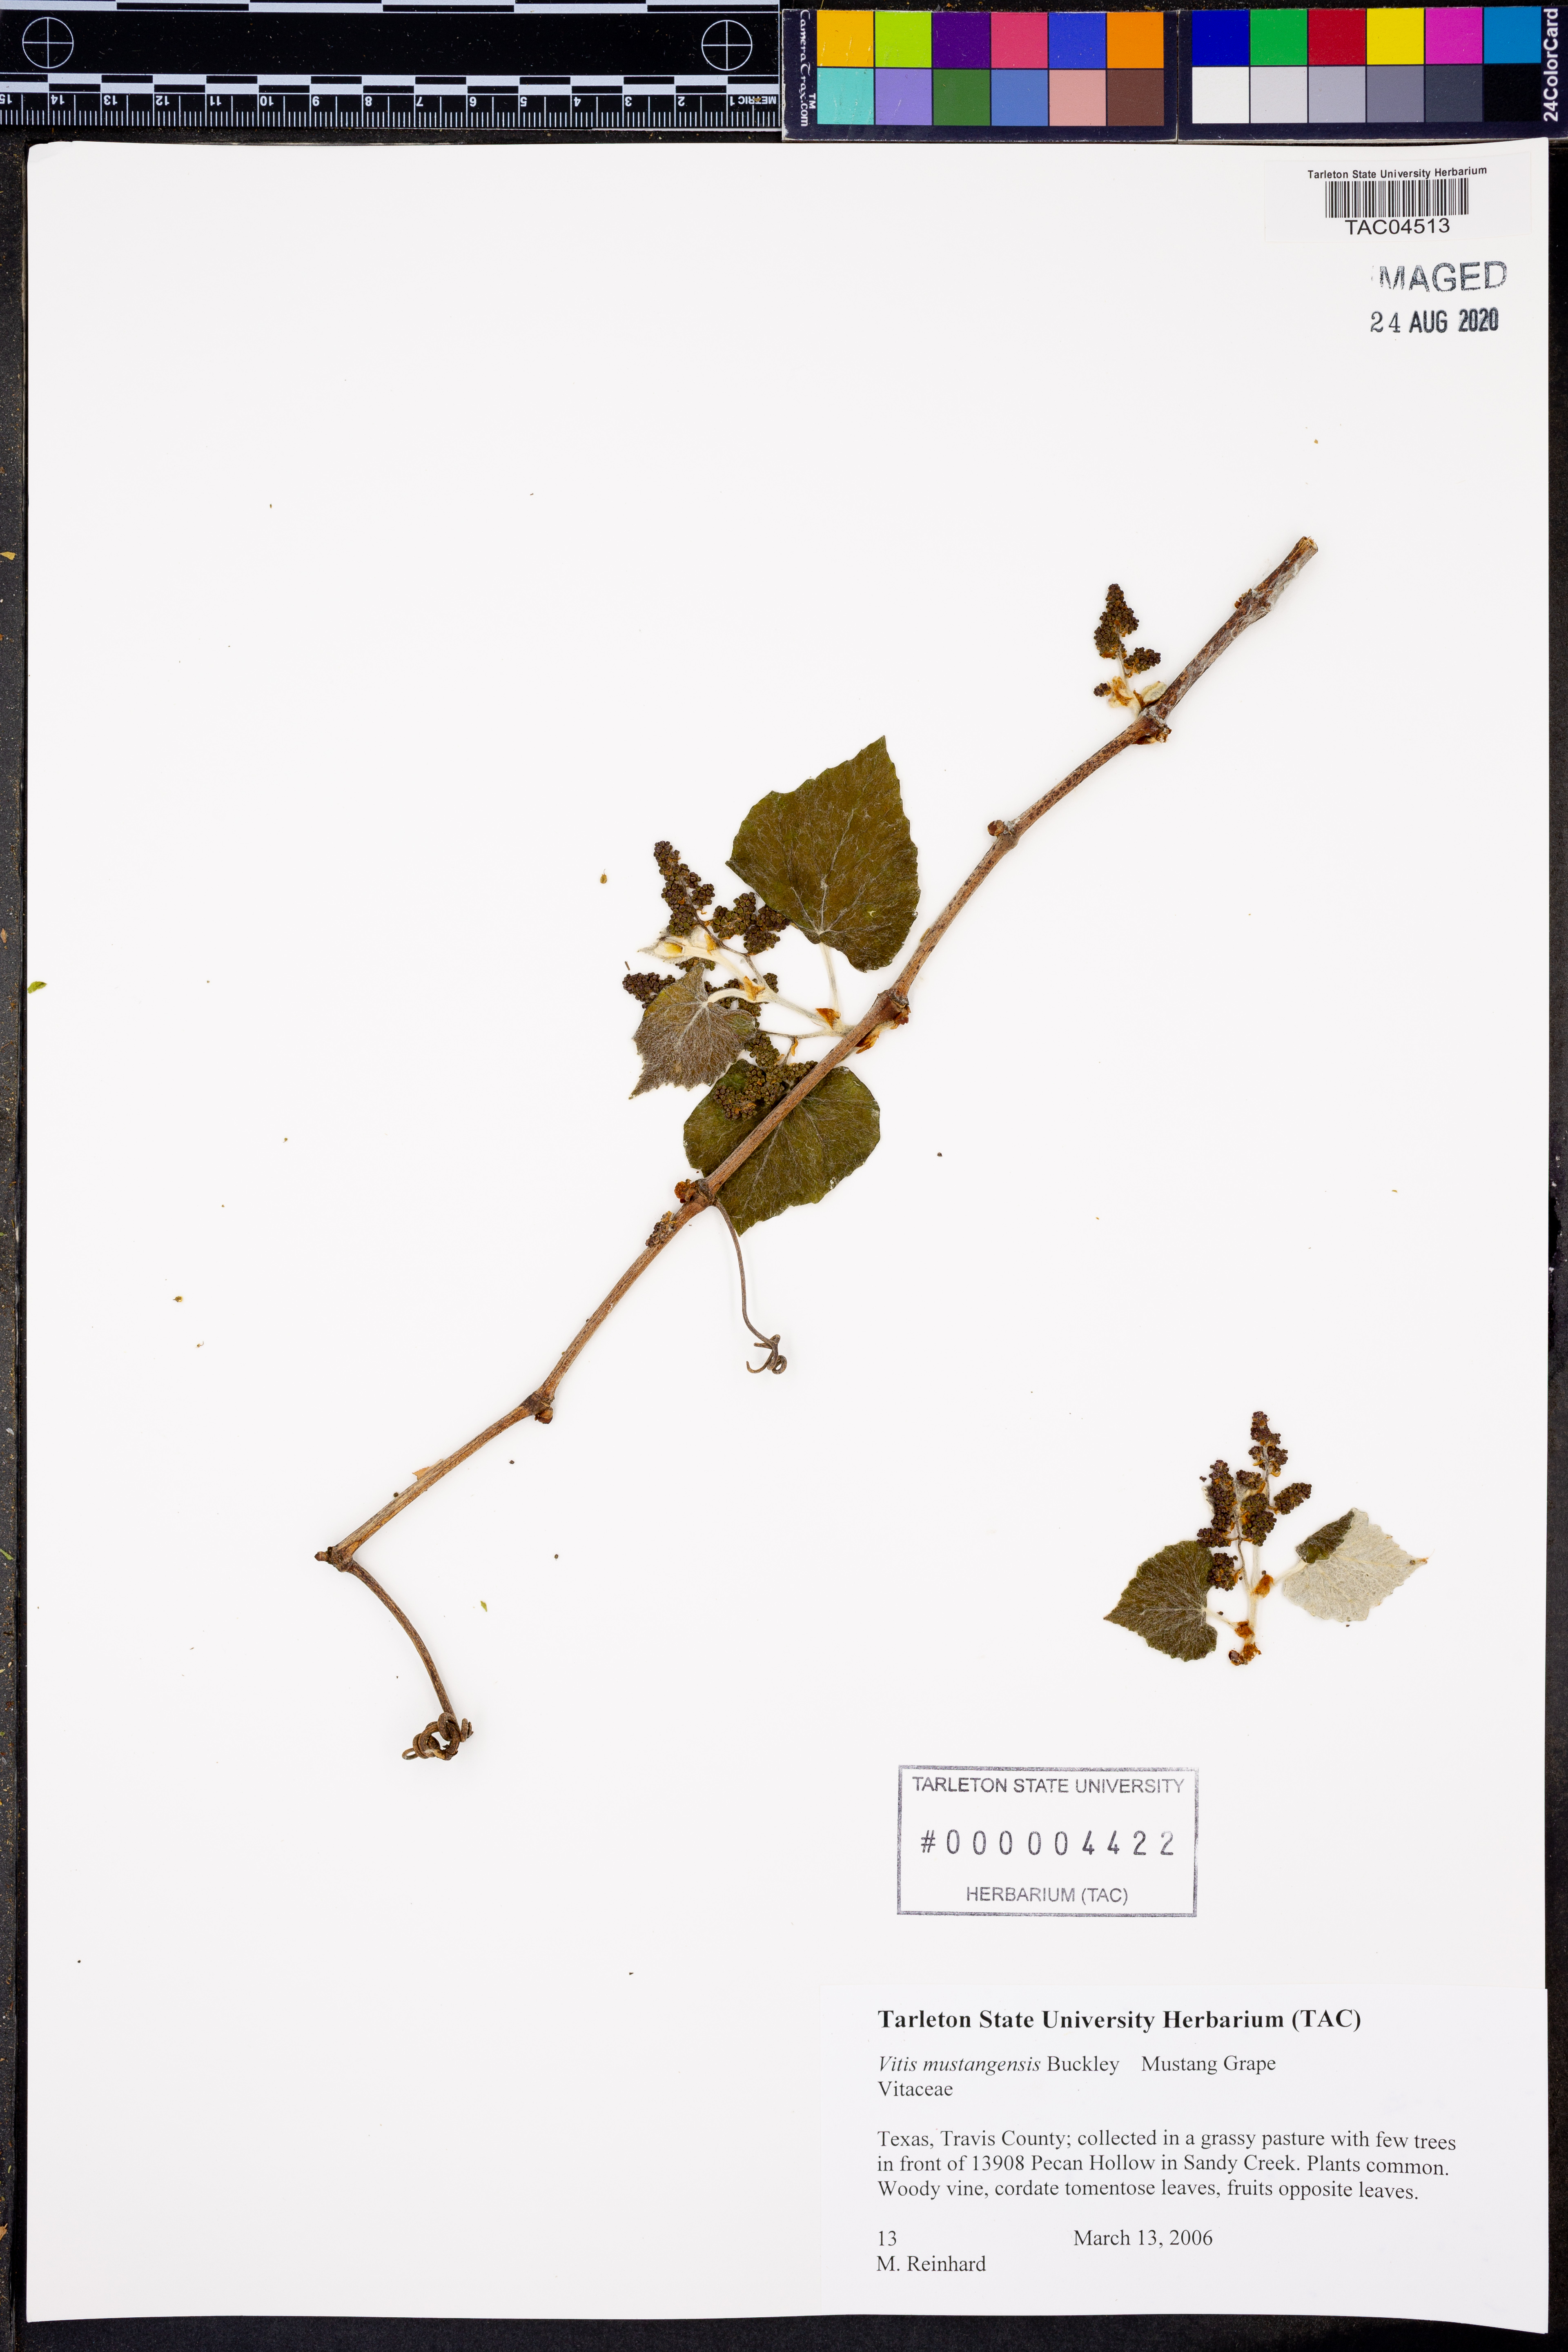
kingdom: Plantae
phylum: Tracheophyta
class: Magnoliopsida
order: Vitales
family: Vitaceae
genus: Vitis
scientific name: Vitis mustangensis
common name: Mustang grape
